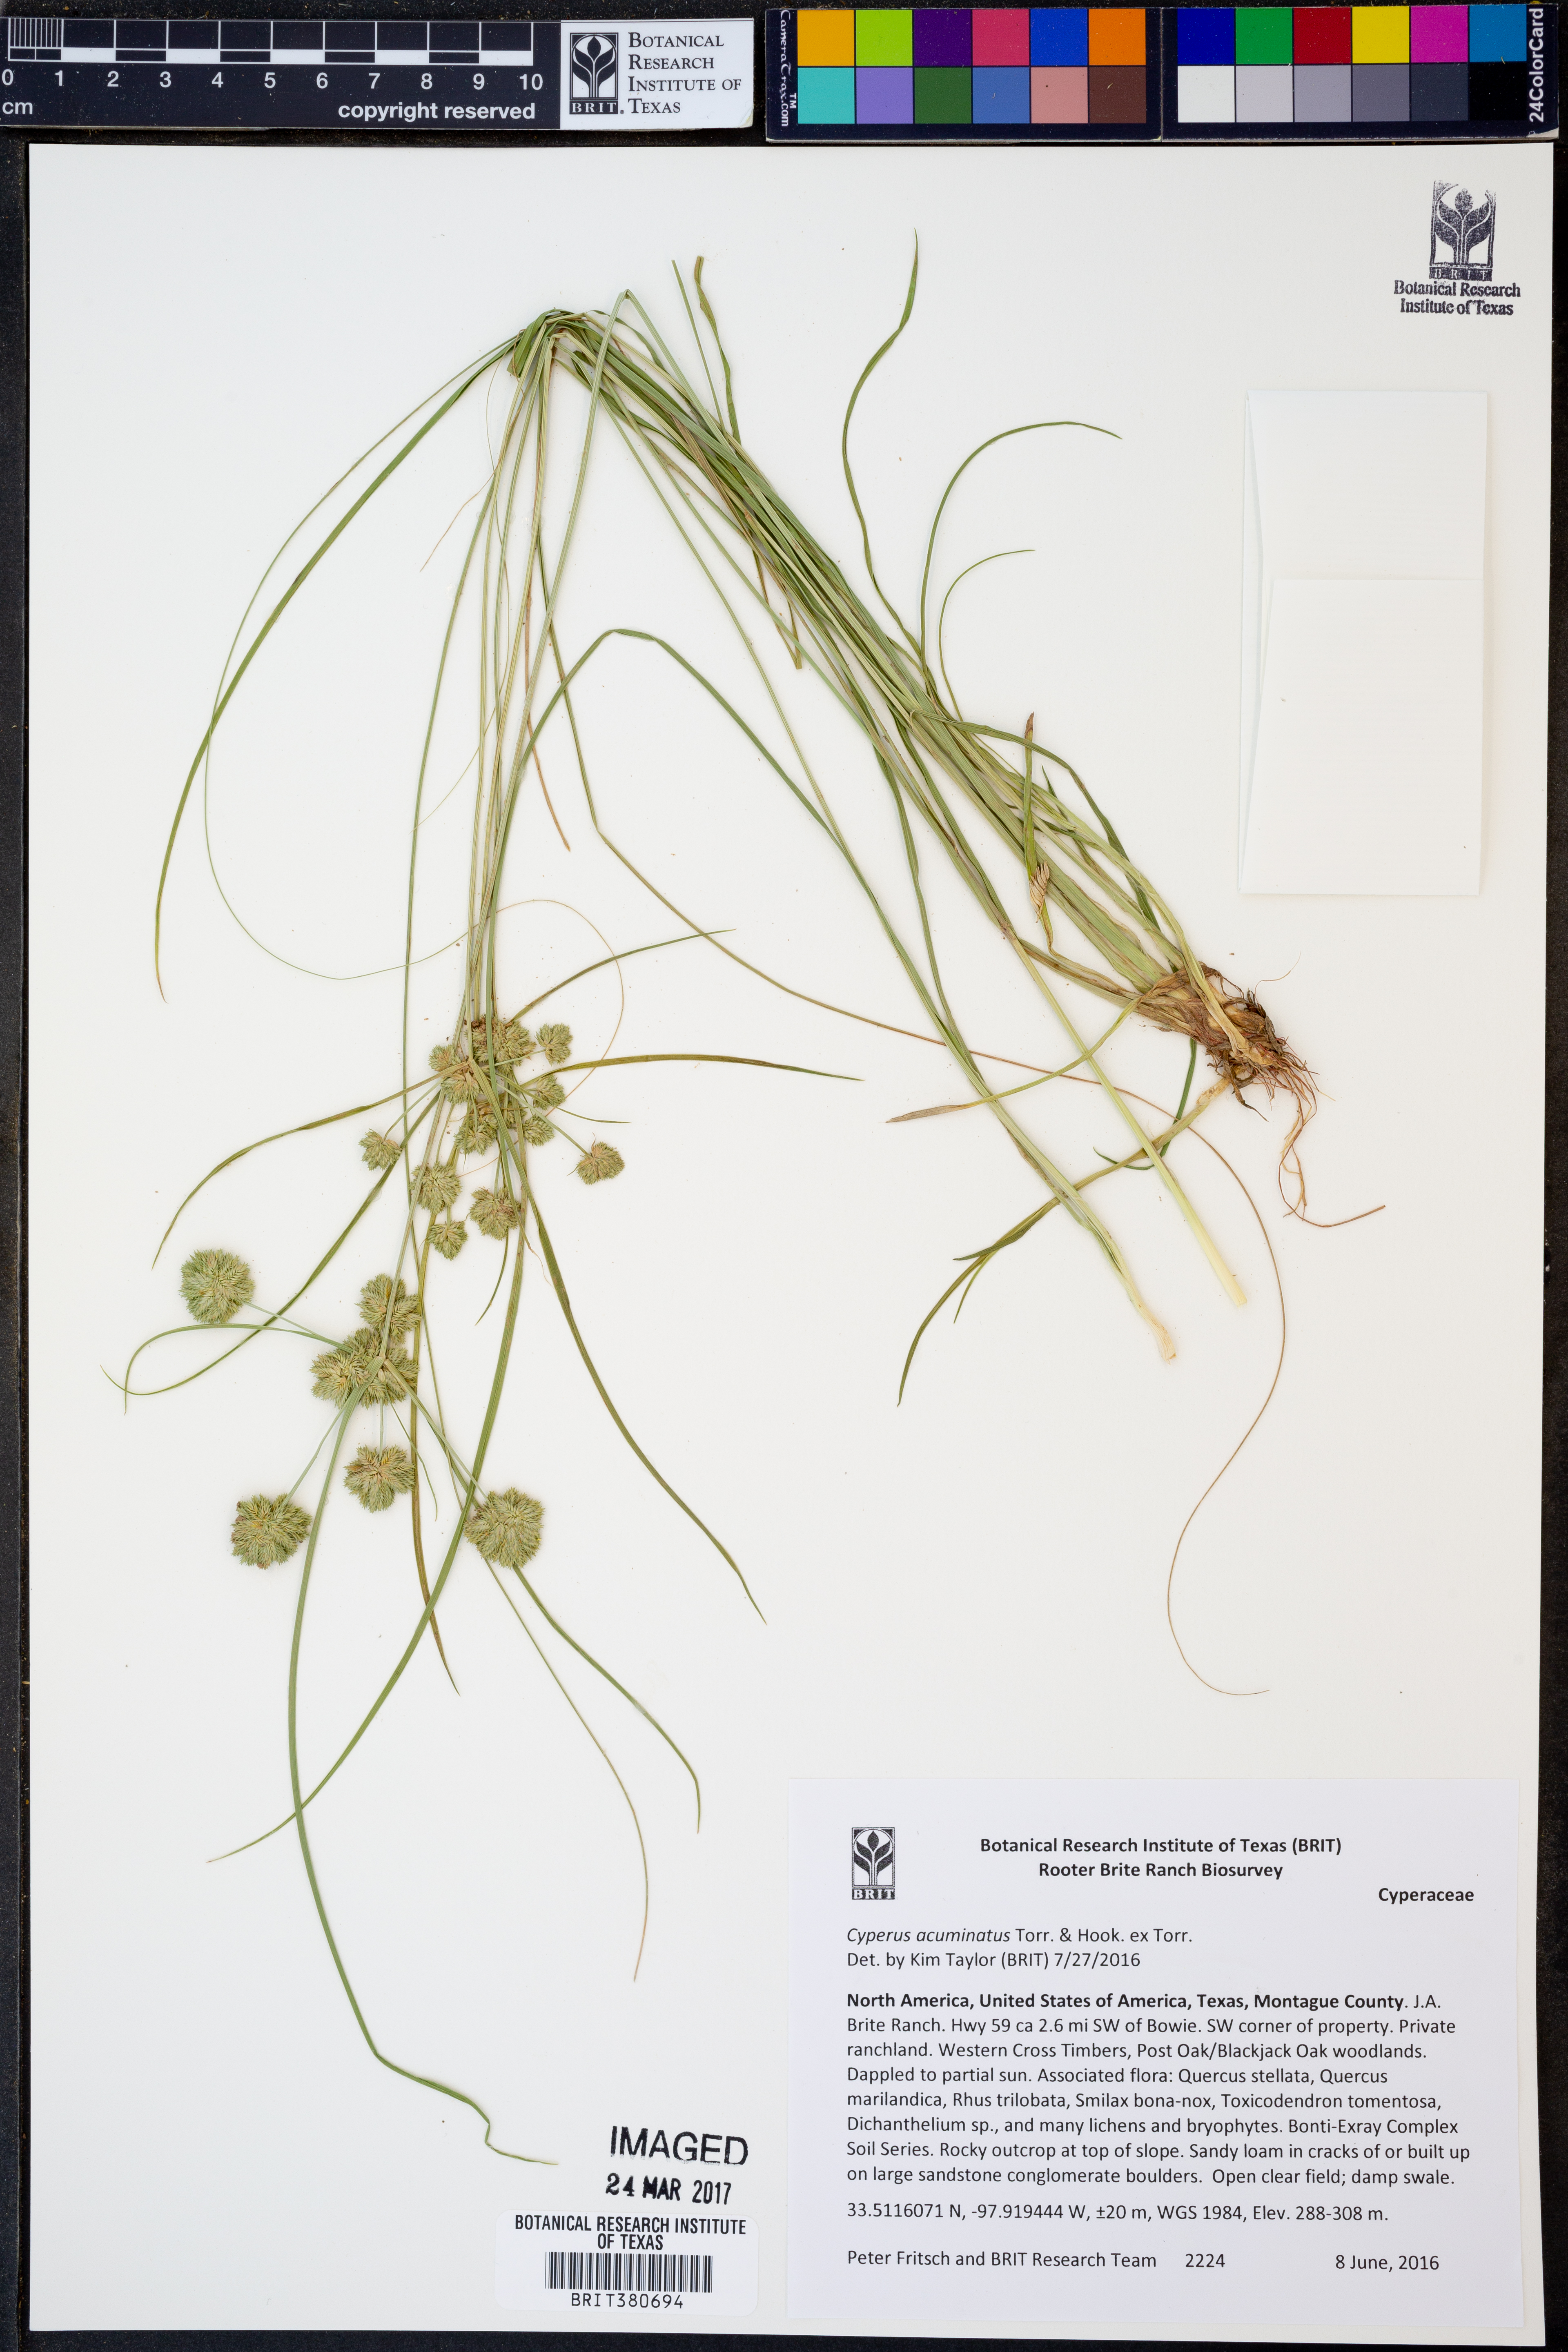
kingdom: Plantae
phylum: Tracheophyta
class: Liliopsida
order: Poales
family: Cyperaceae
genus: Cyperus
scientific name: Cyperus acuminatus
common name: Short-pointed cyperus
